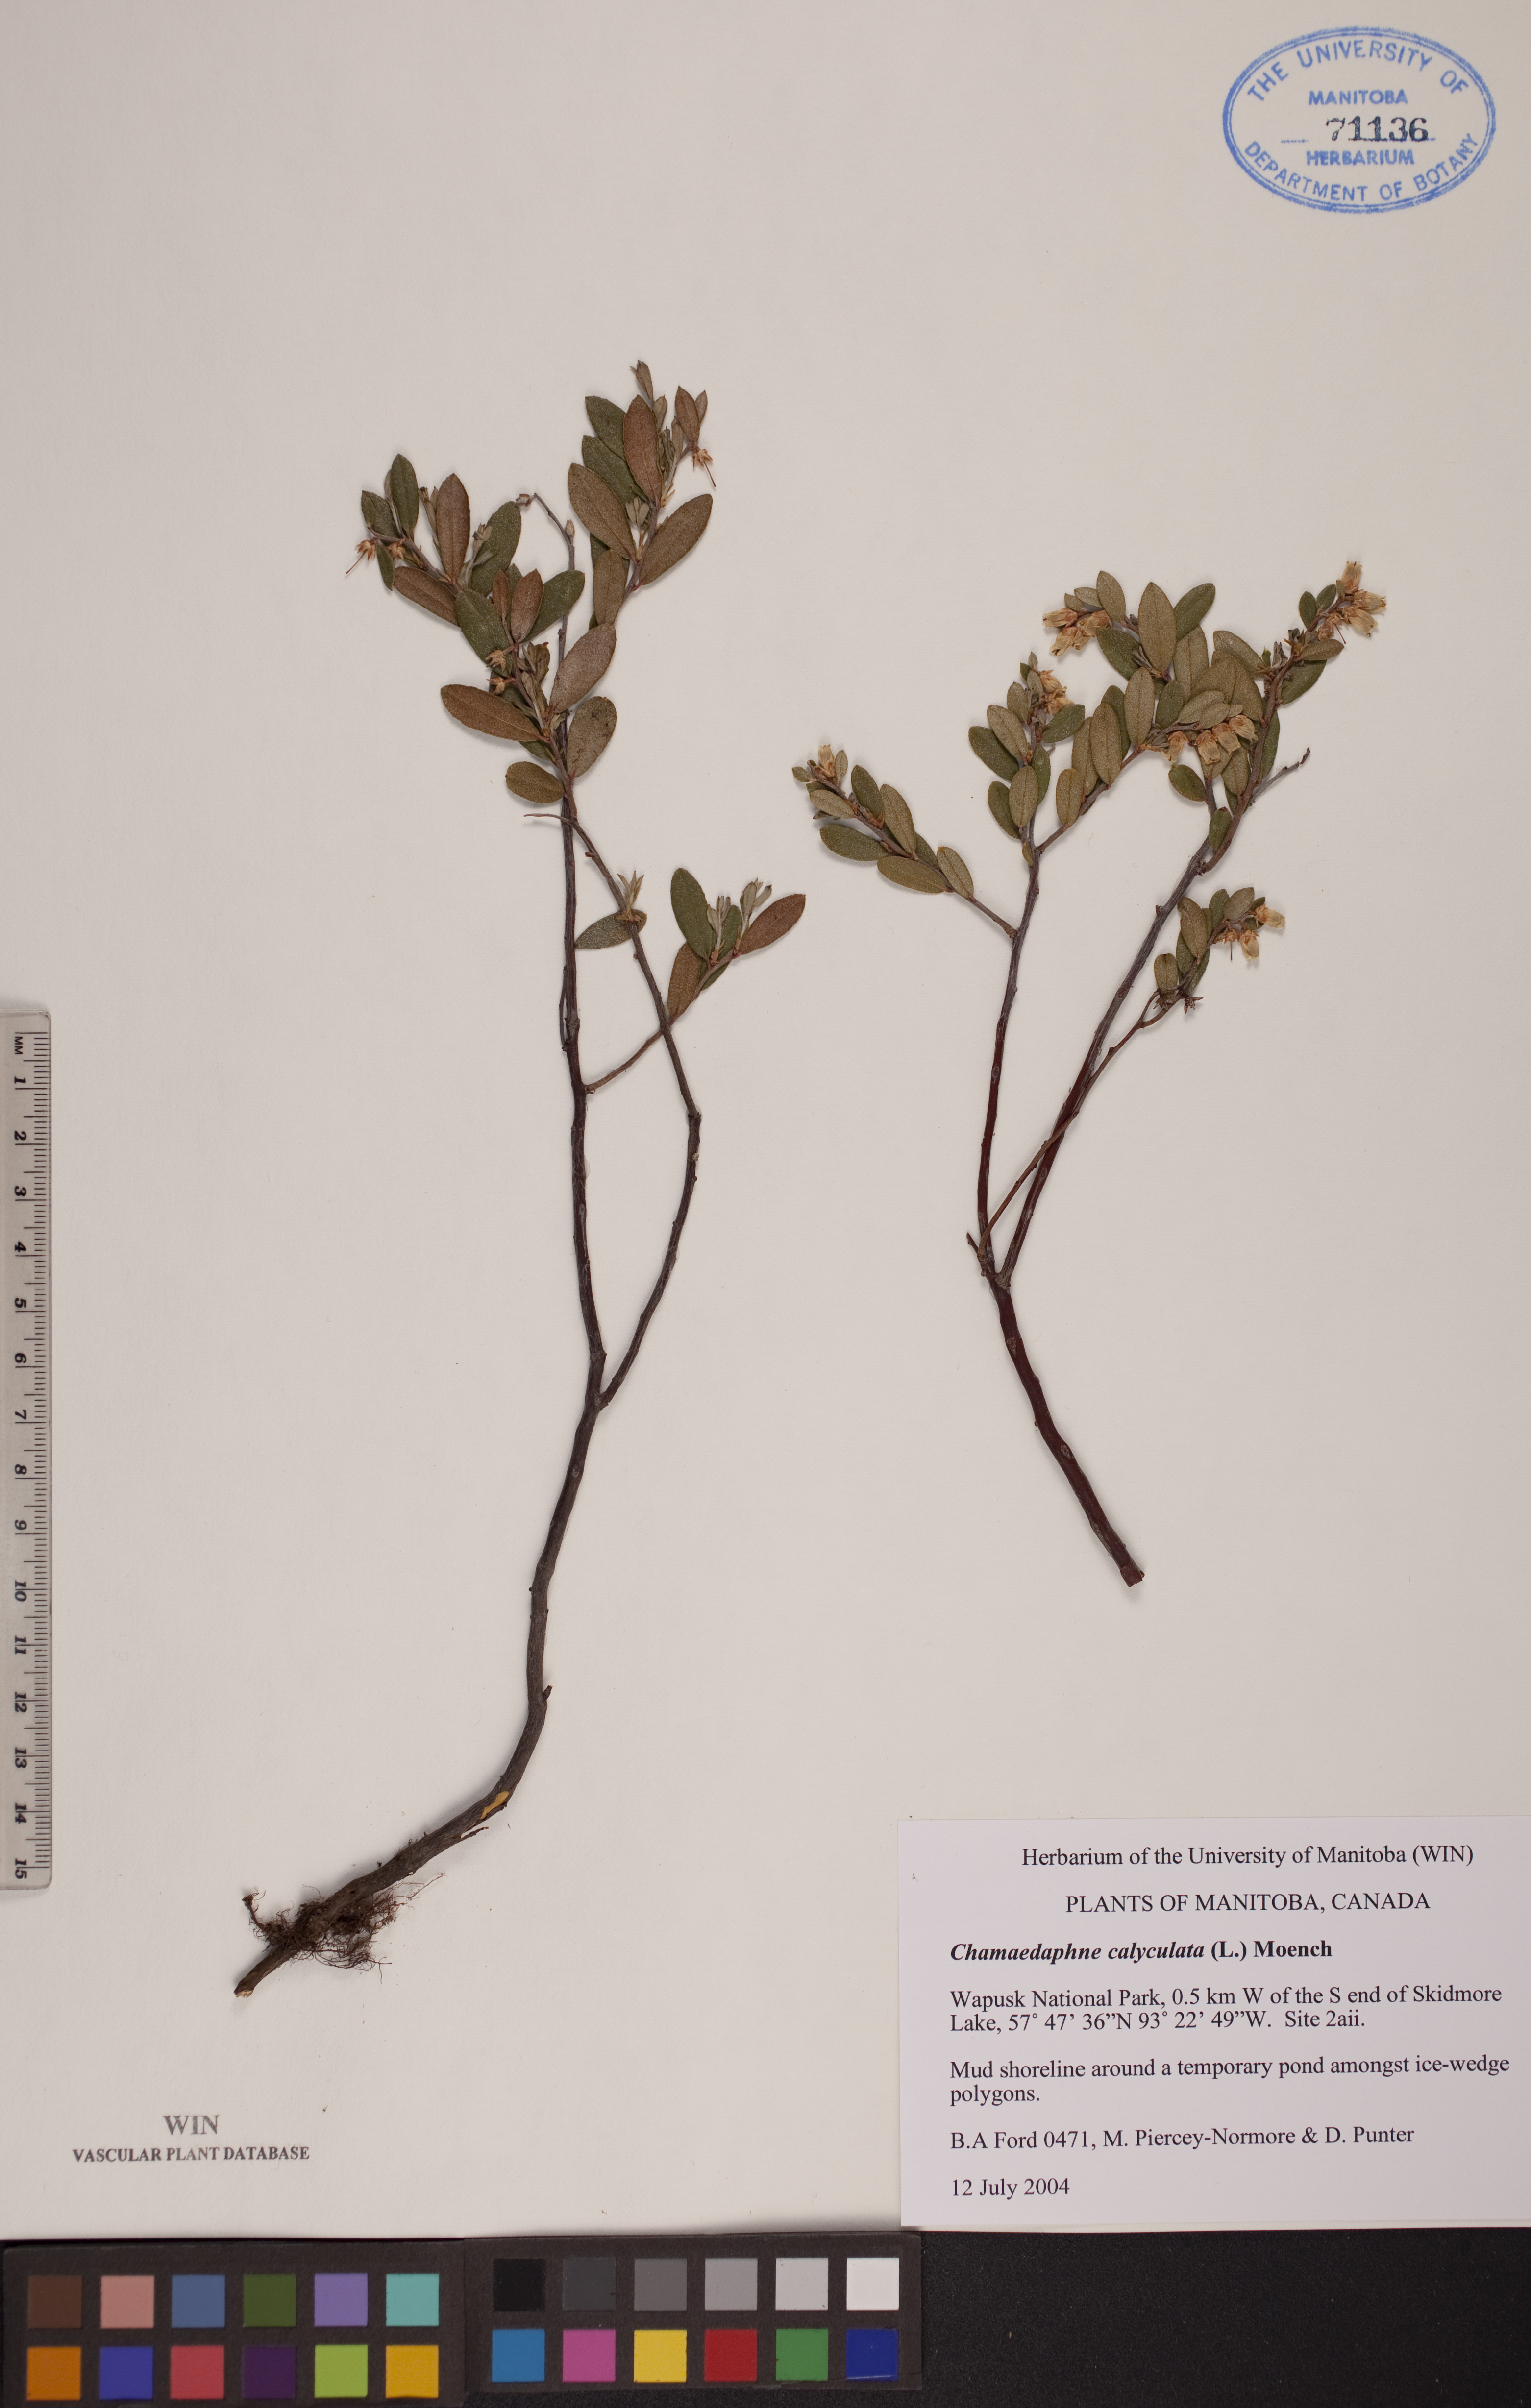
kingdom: Plantae
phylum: Tracheophyta
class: Magnoliopsida
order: Ericales
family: Ericaceae
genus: Chamaedaphne
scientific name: Chamaedaphne calyculata
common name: Leatherleaf
